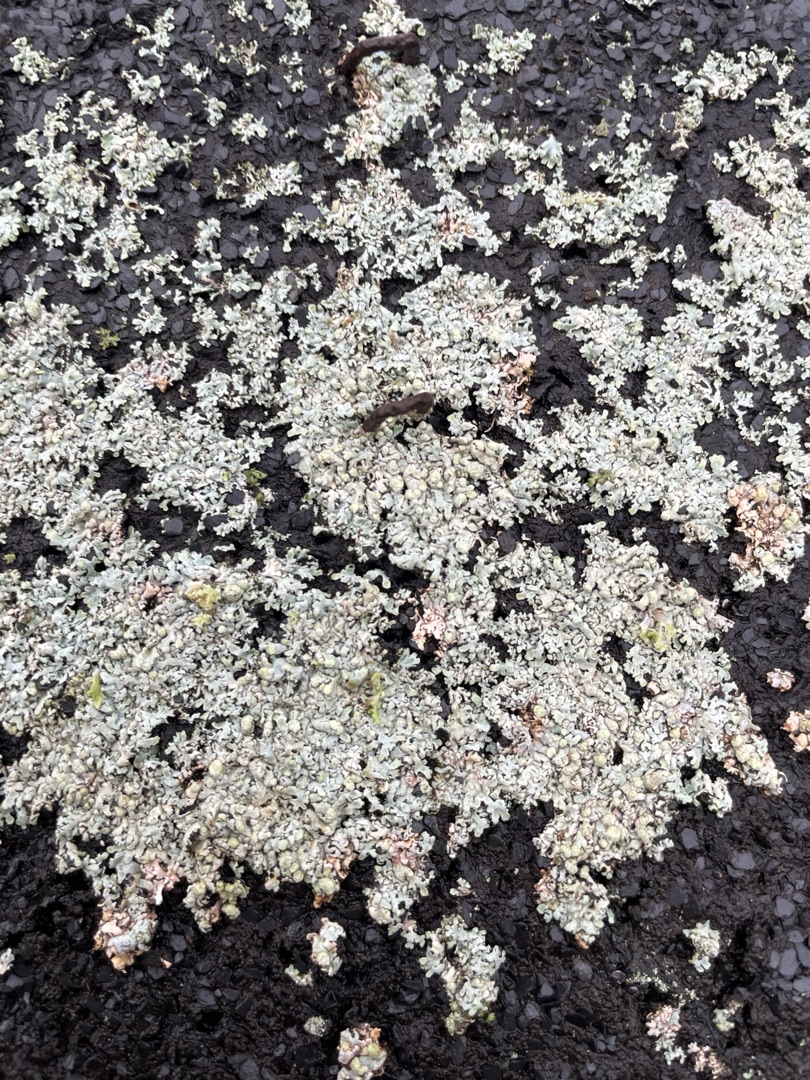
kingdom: Fungi
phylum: Ascomycota
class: Lecanoromycetes
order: Caliciales
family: Physciaceae
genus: Physcia
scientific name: Physcia caesia
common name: Blågrå rosetlav
